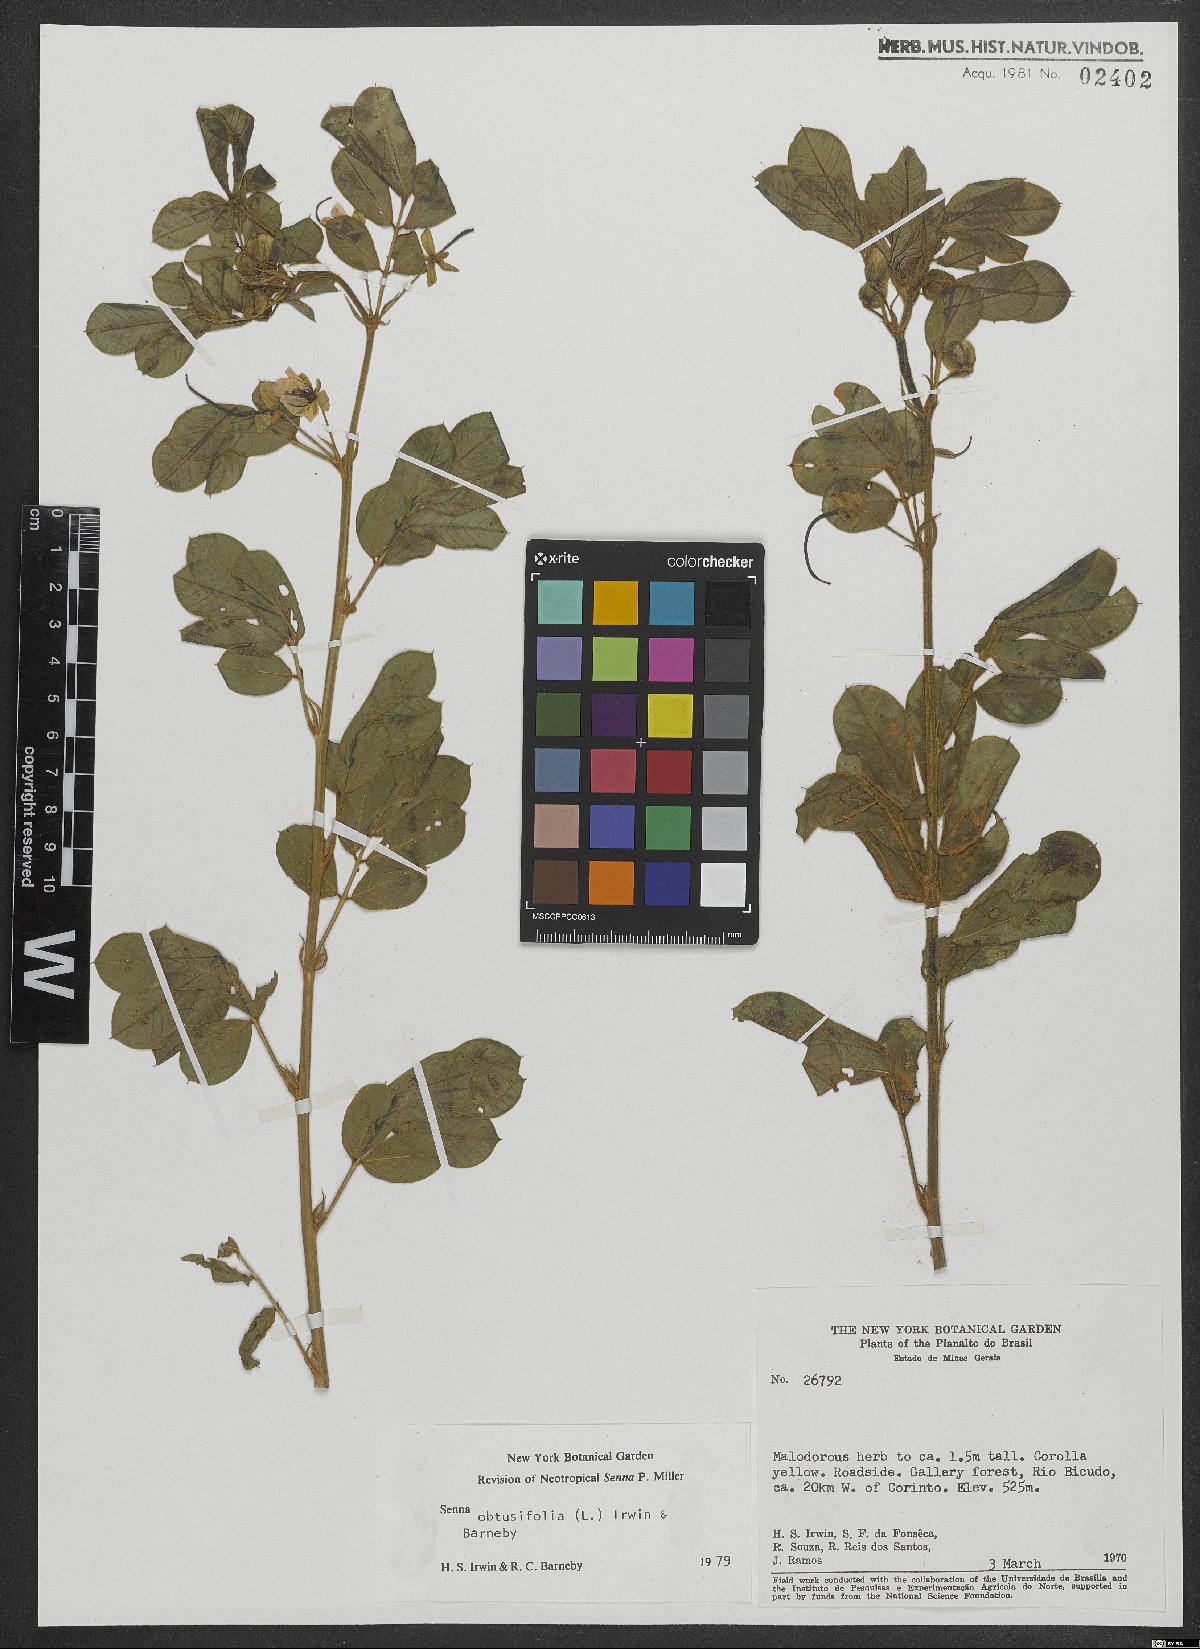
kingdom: Plantae
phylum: Tracheophyta
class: Magnoliopsida
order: Fabales
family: Fabaceae
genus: Senna
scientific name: Senna obtusifolia
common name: Java-bean
